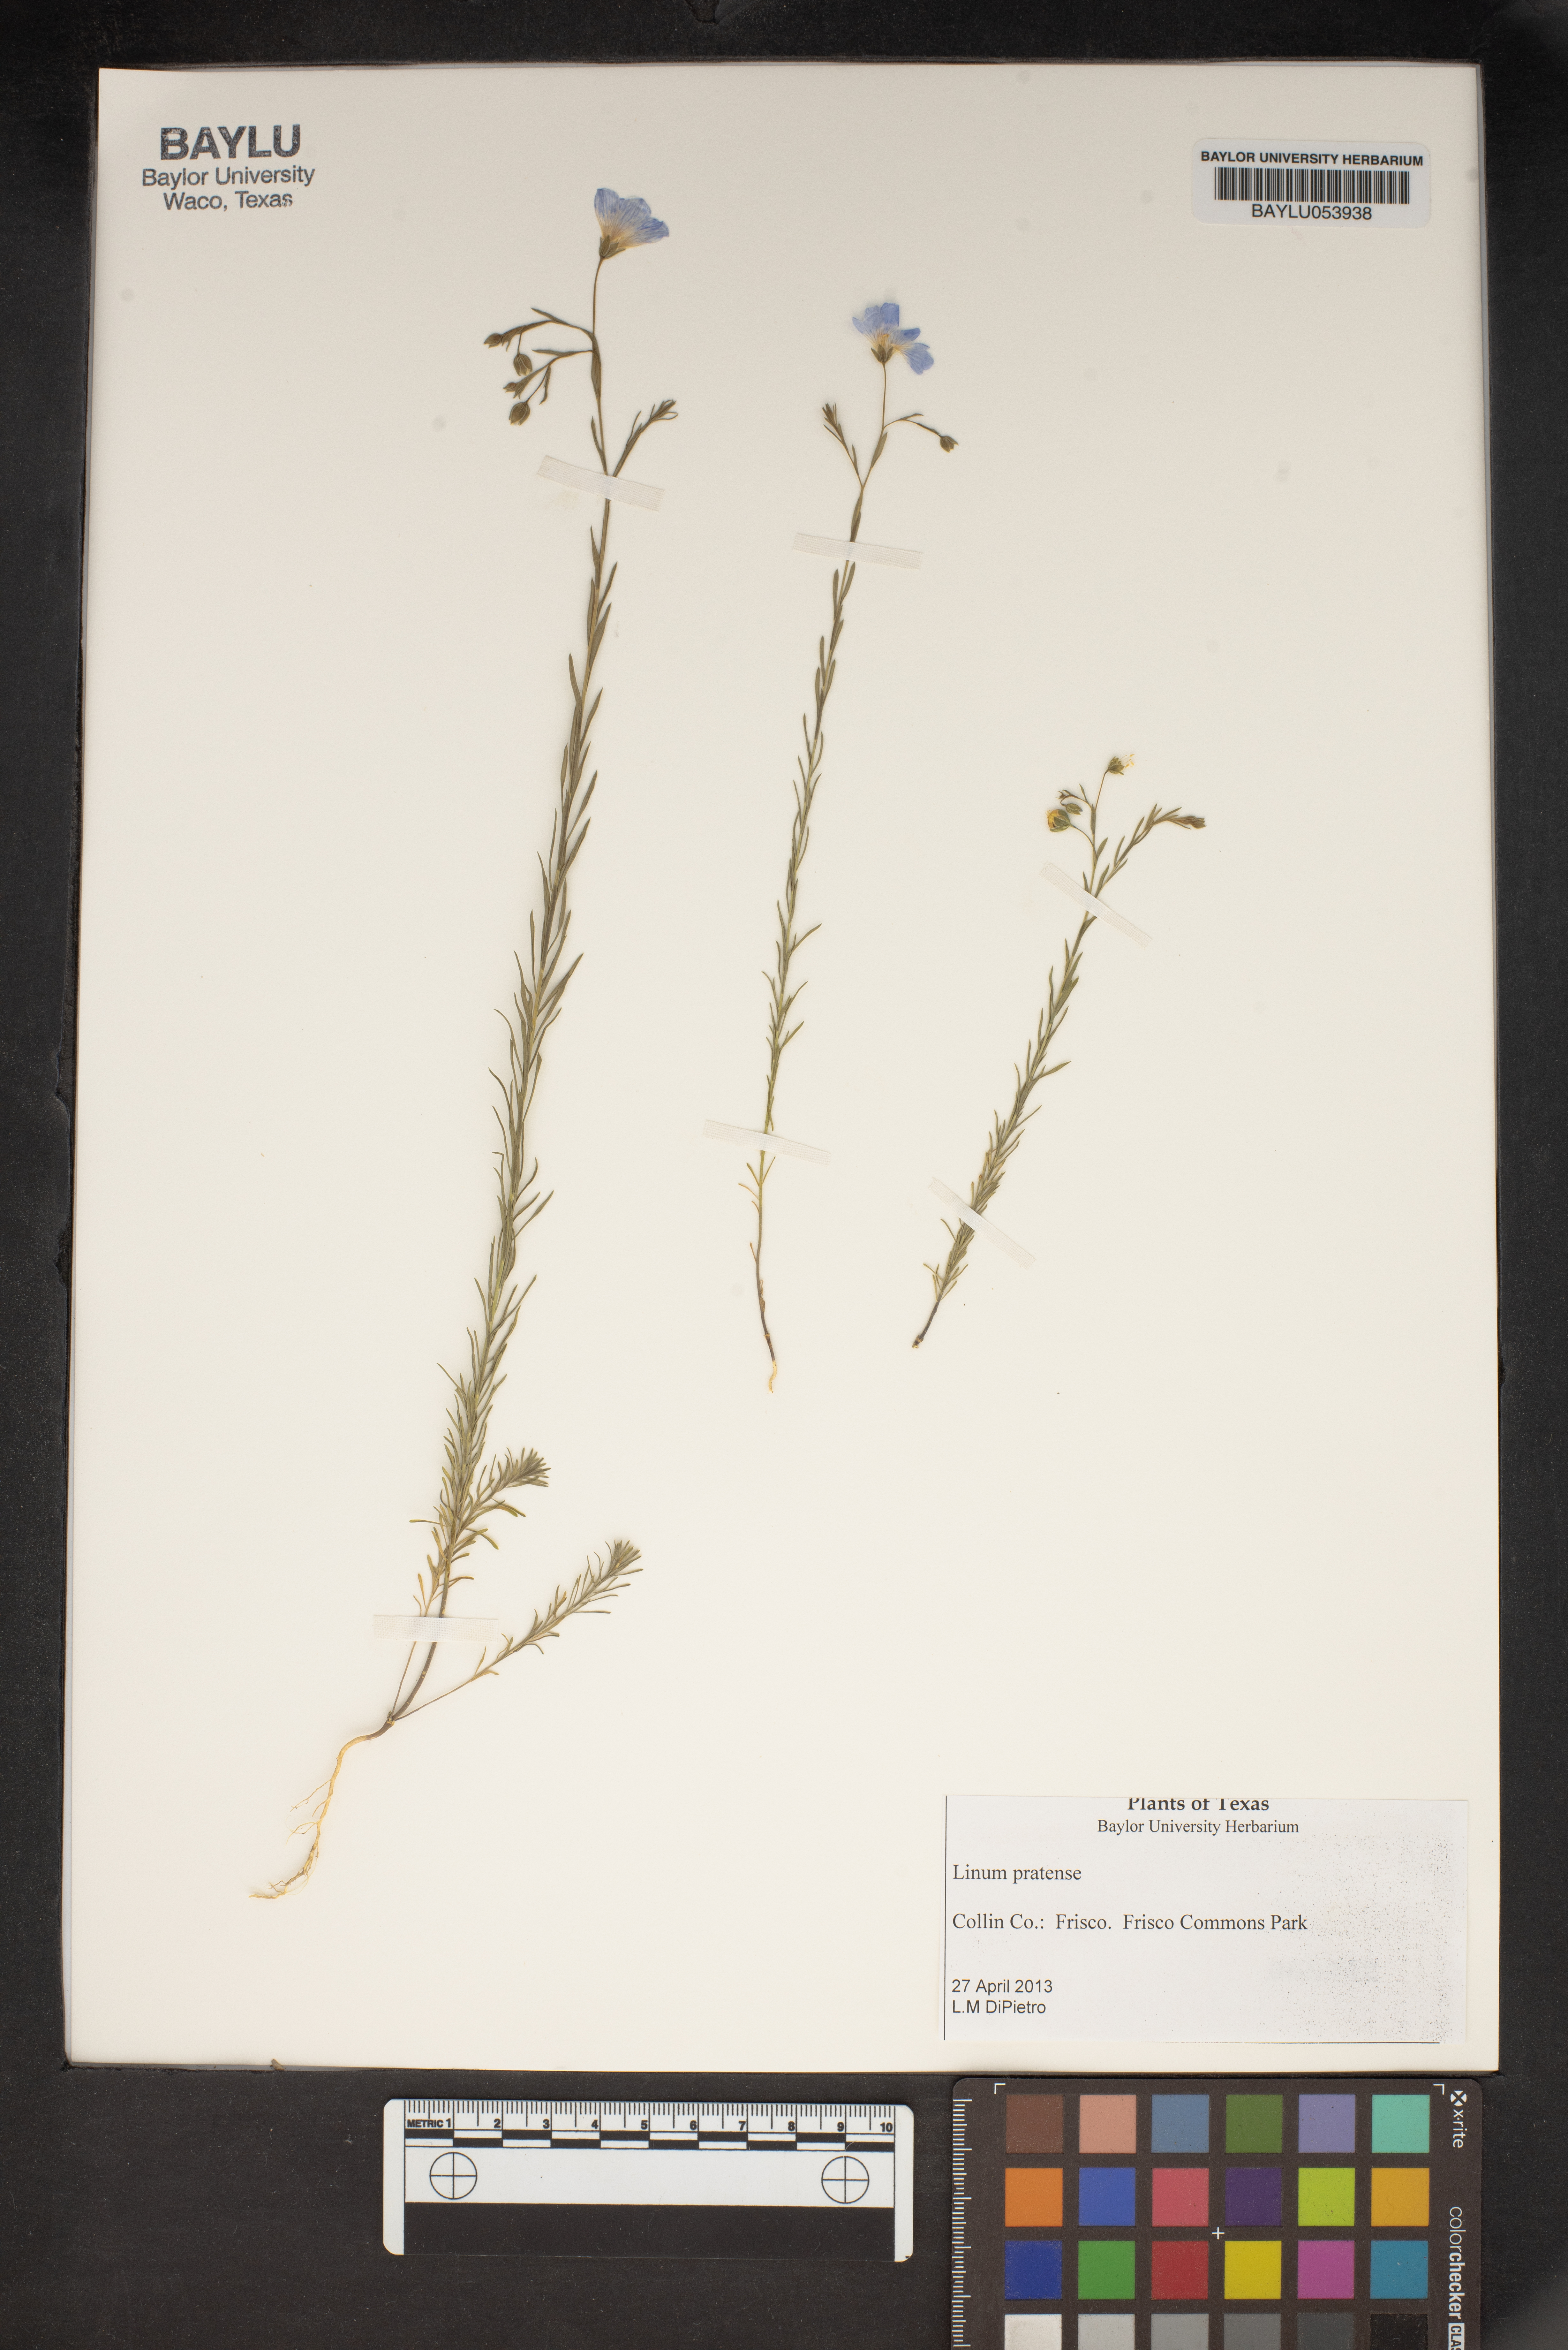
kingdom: Plantae
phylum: Tracheophyta
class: Magnoliopsida
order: Malpighiales
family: Linaceae
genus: Linum
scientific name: Linum pratense
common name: Norton's flax
